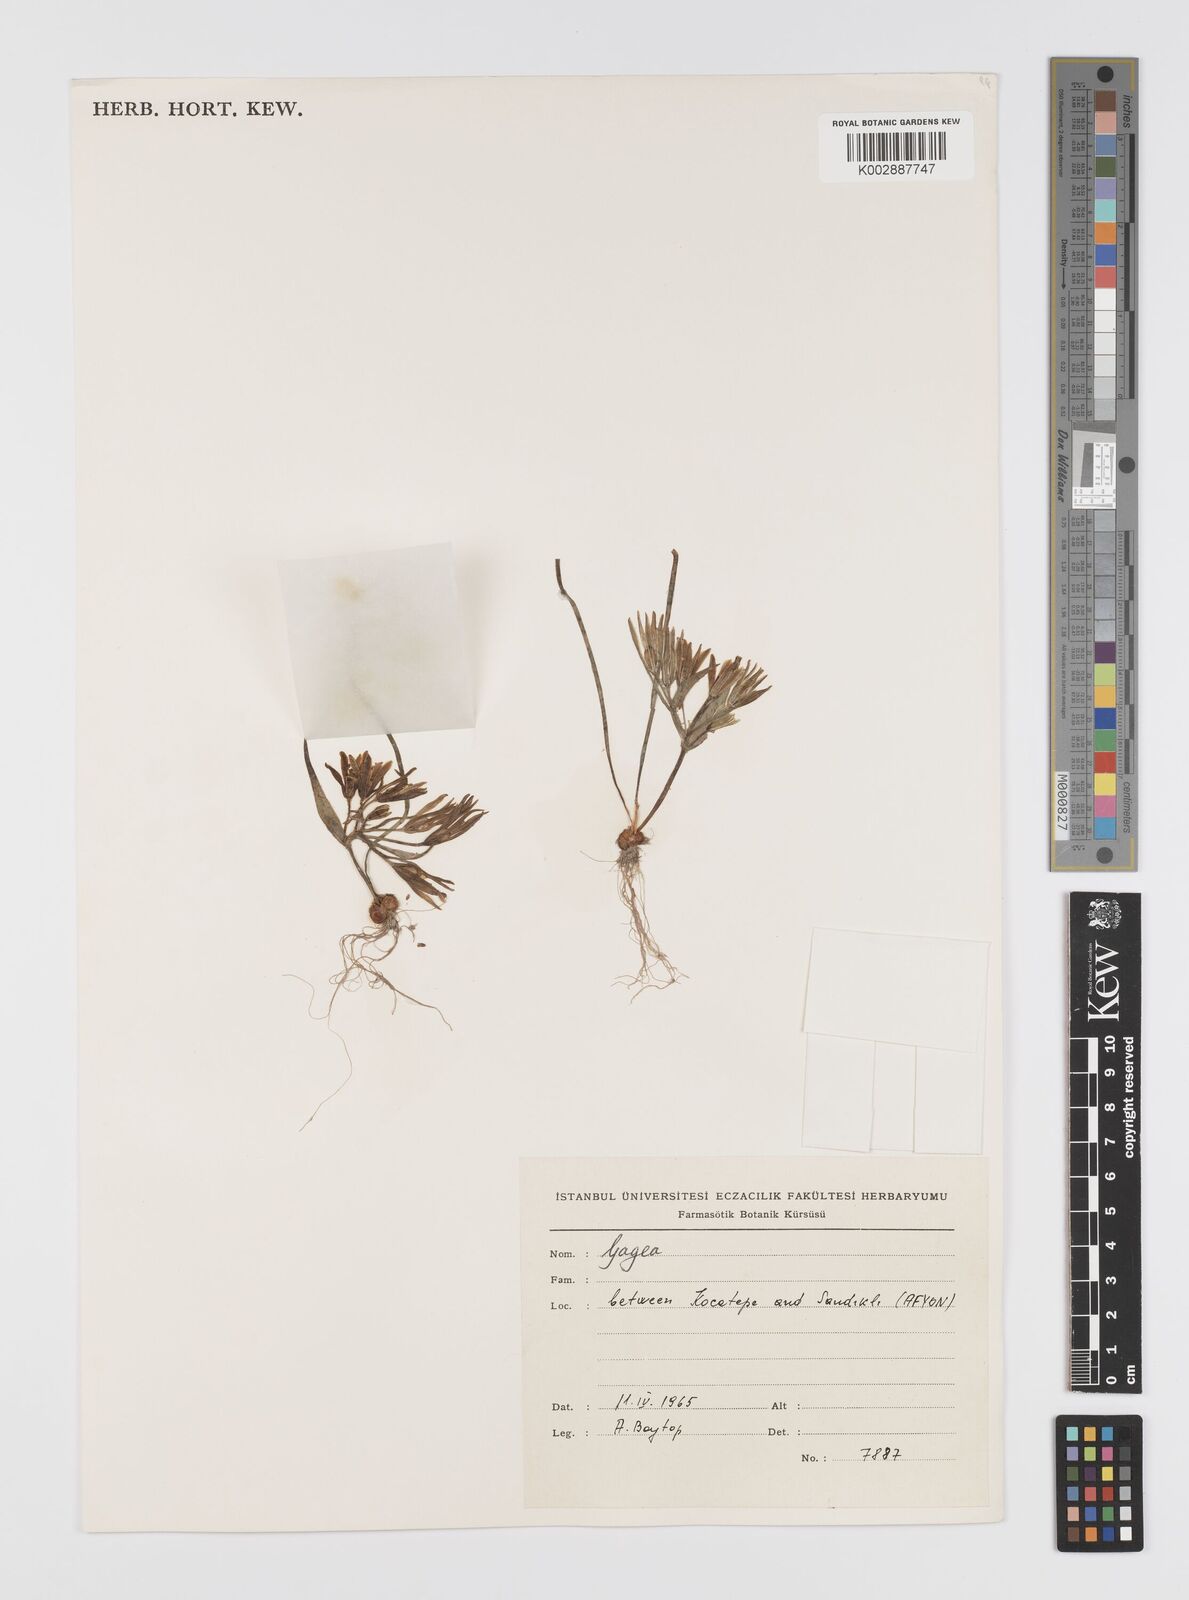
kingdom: Plantae
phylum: Tracheophyta
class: Liliopsida
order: Liliales
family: Liliaceae
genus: Gagea
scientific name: Gagea minima
